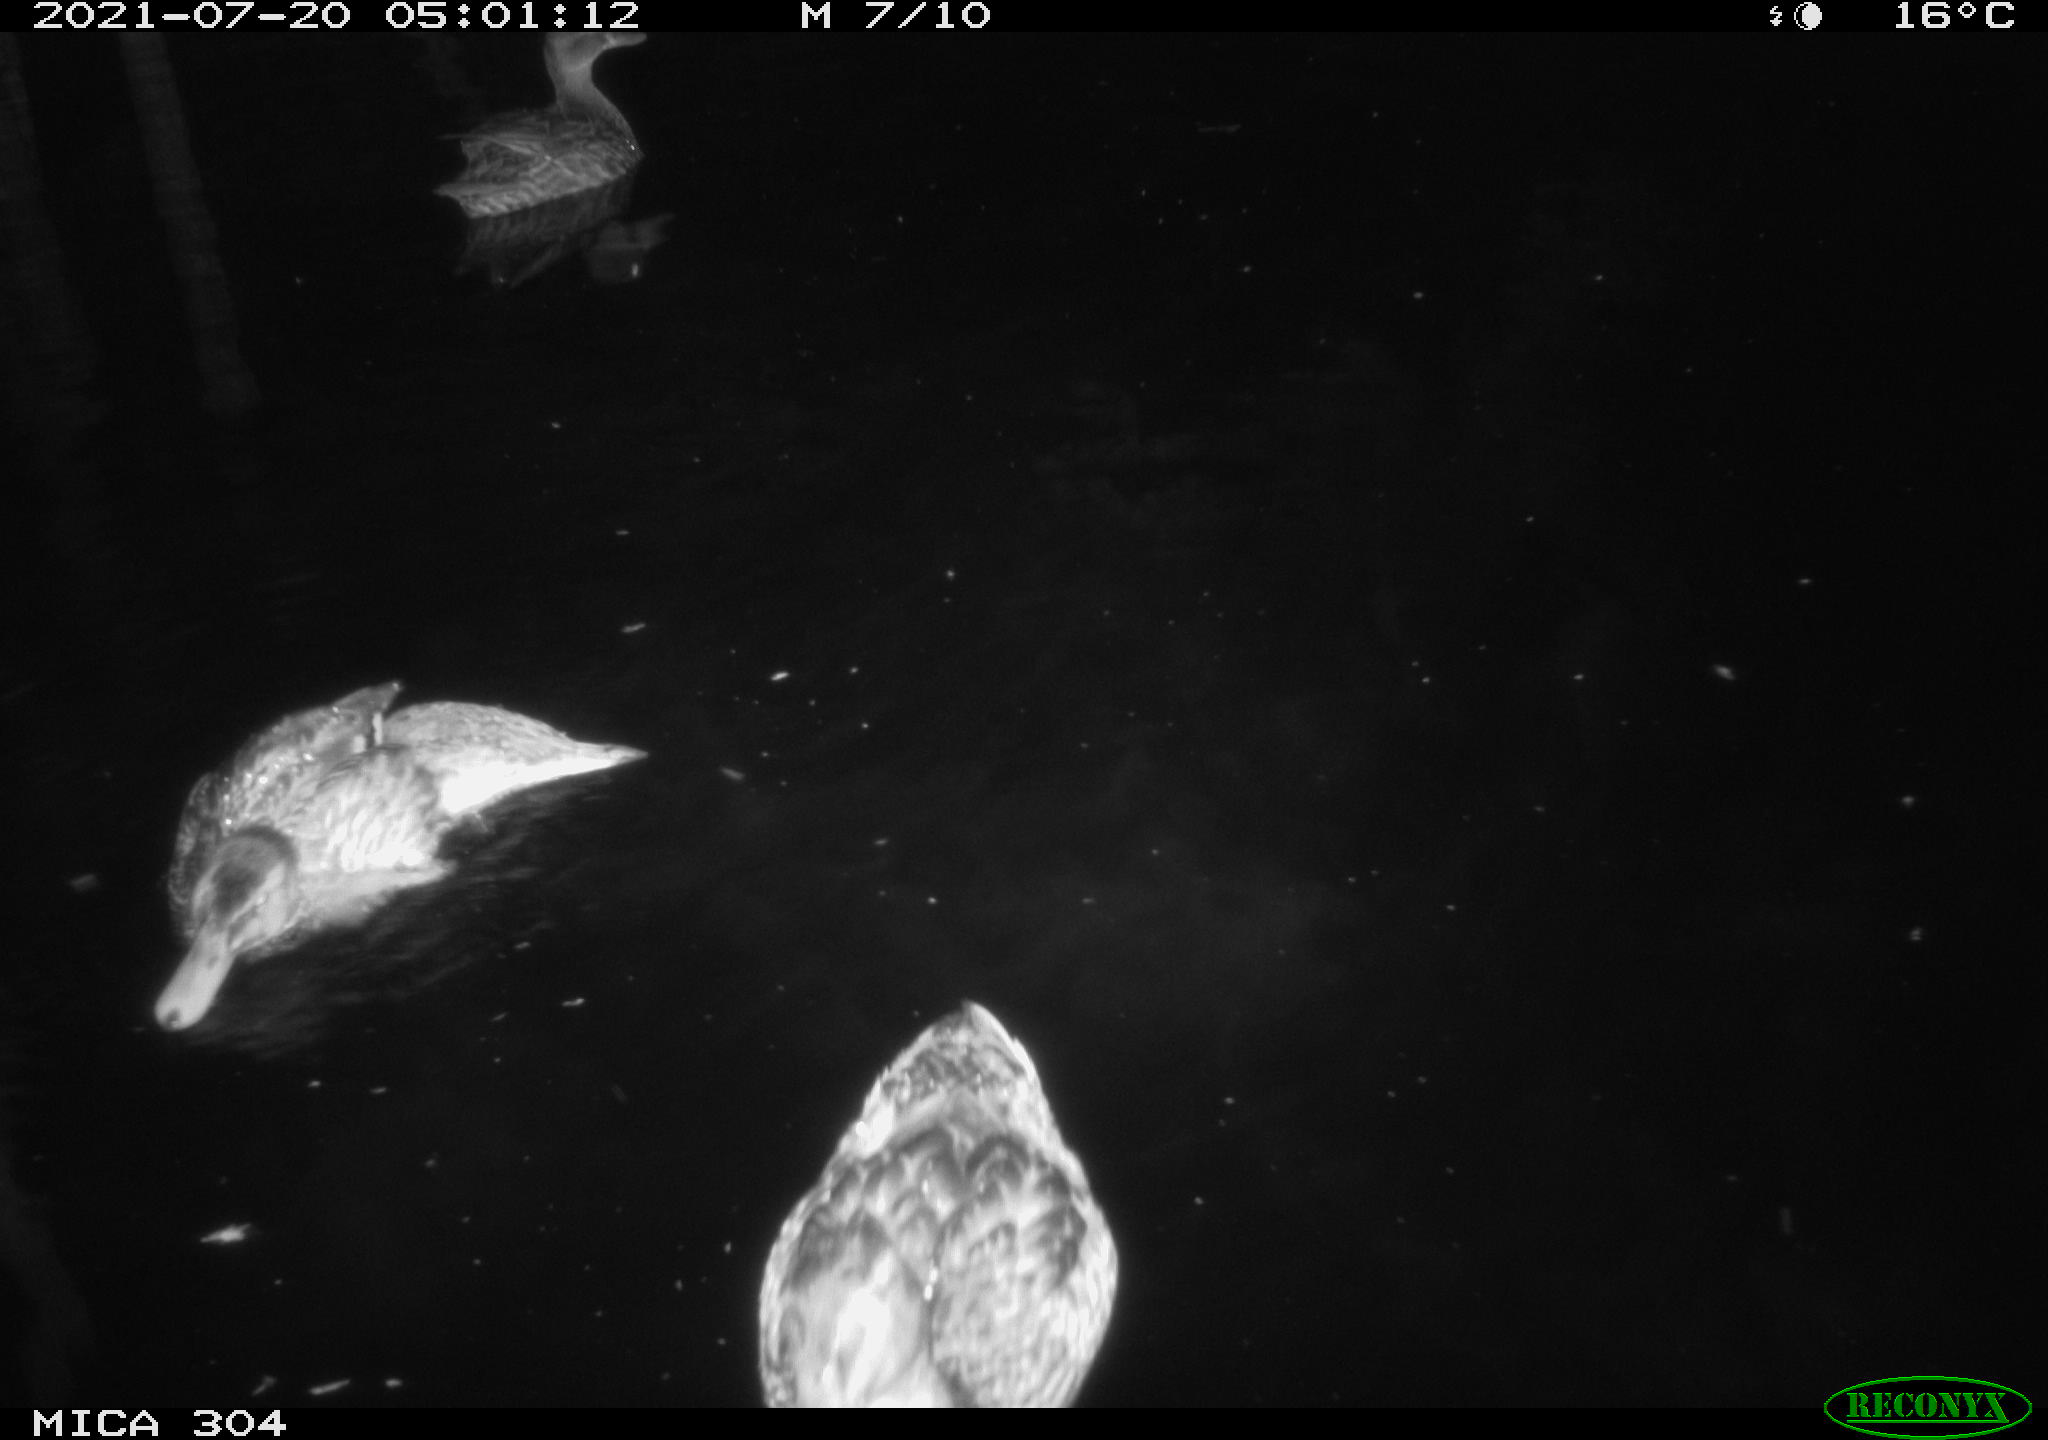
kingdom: Animalia
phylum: Chordata
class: Aves
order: Anseriformes
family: Anatidae
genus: Mareca
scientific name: Mareca strepera
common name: Gadwall
